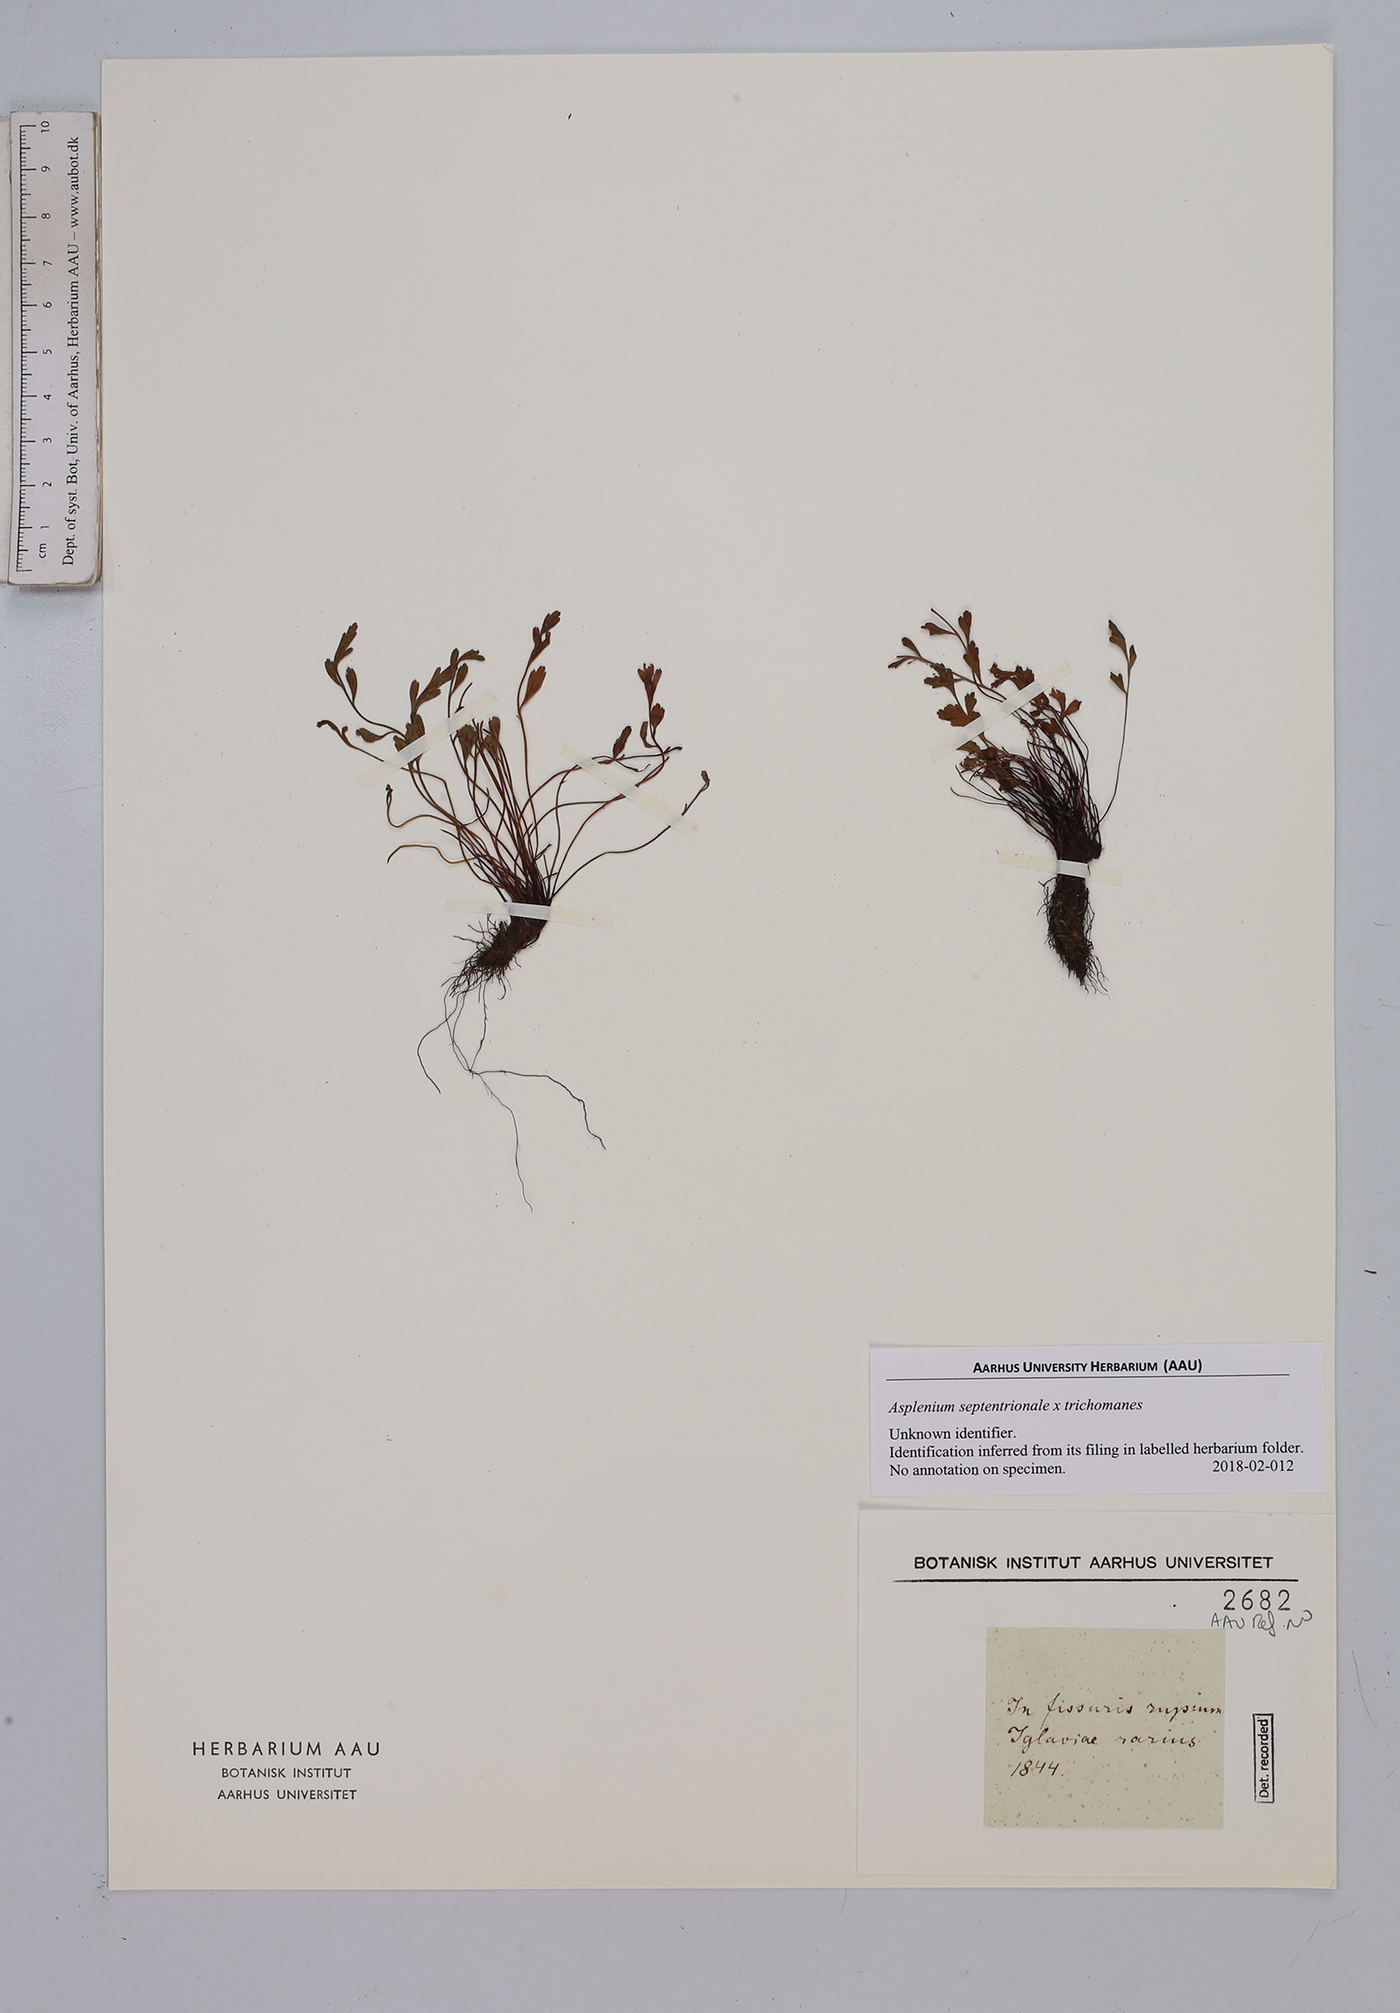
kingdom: Plantae
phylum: Tracheophyta
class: Polypodiopsida
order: Polypodiales
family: Aspleniaceae
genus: Asplenium
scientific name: Asplenium
